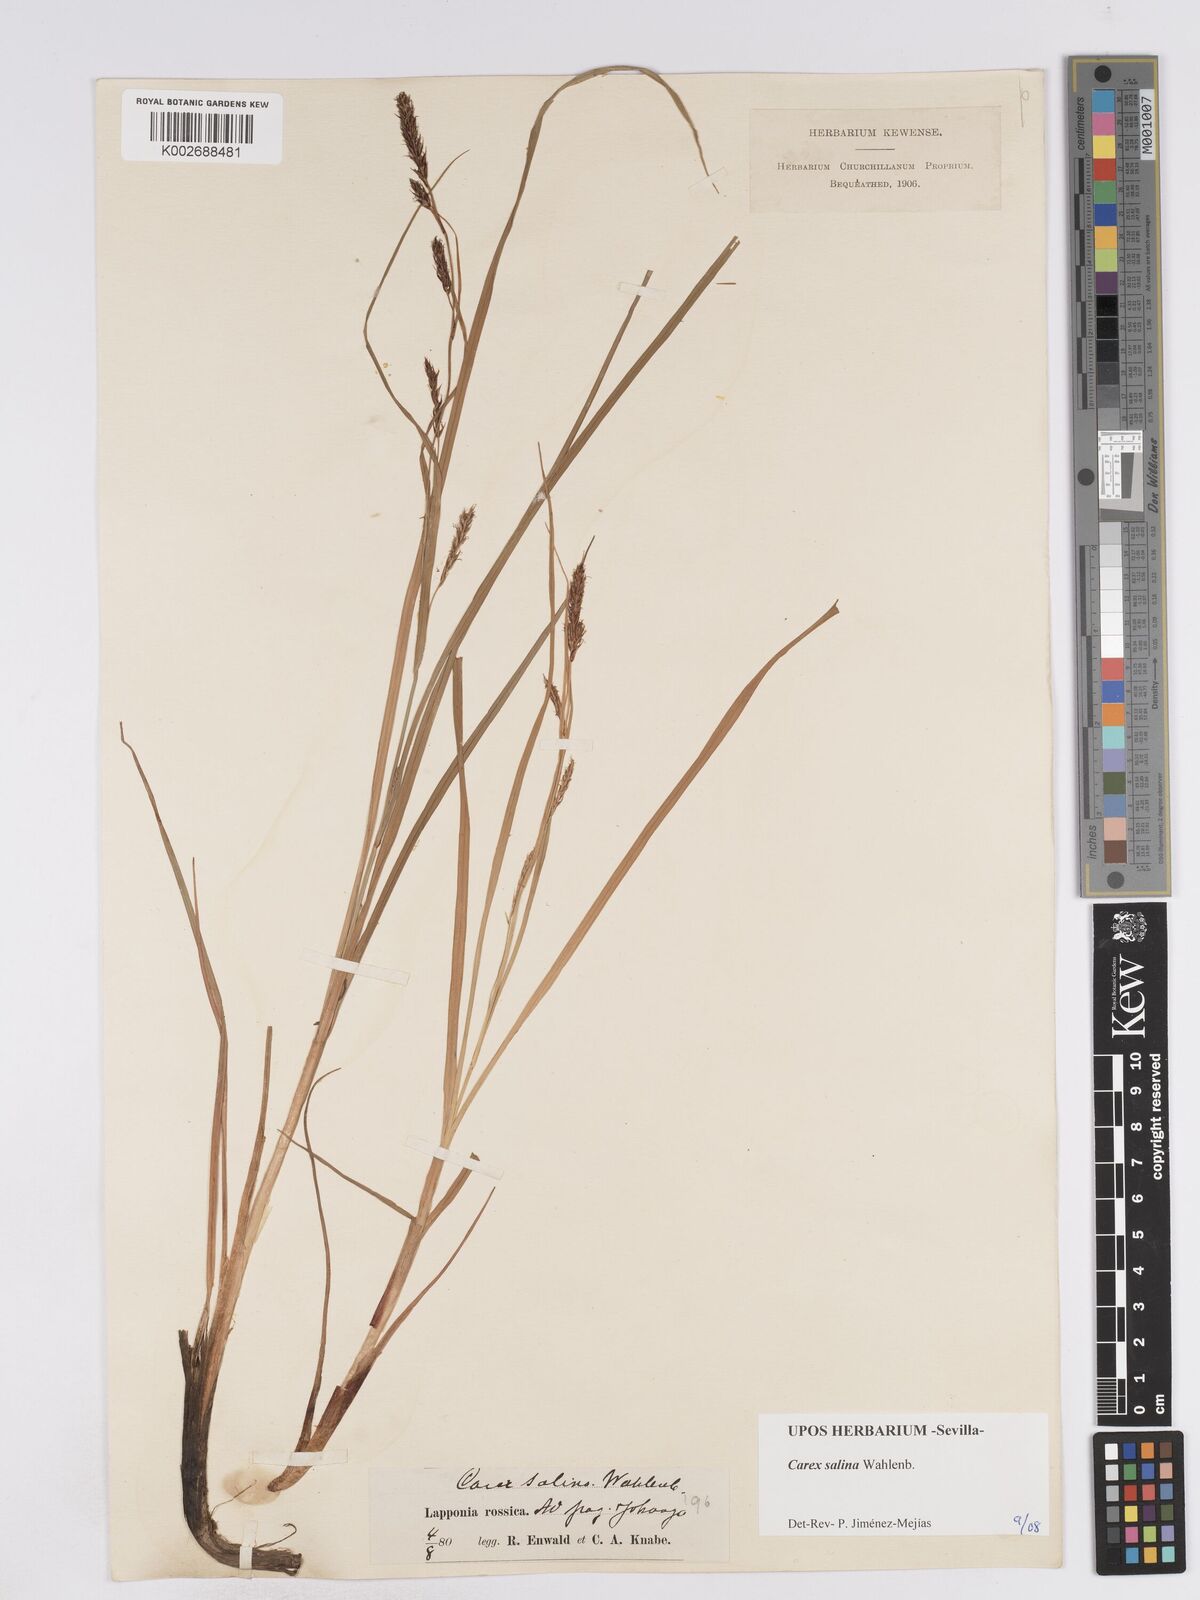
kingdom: Plantae
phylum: Tracheophyta
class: Liliopsida
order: Poales
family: Cyperaceae
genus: Carex
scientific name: Carex salina
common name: Saltmarsh sedge
